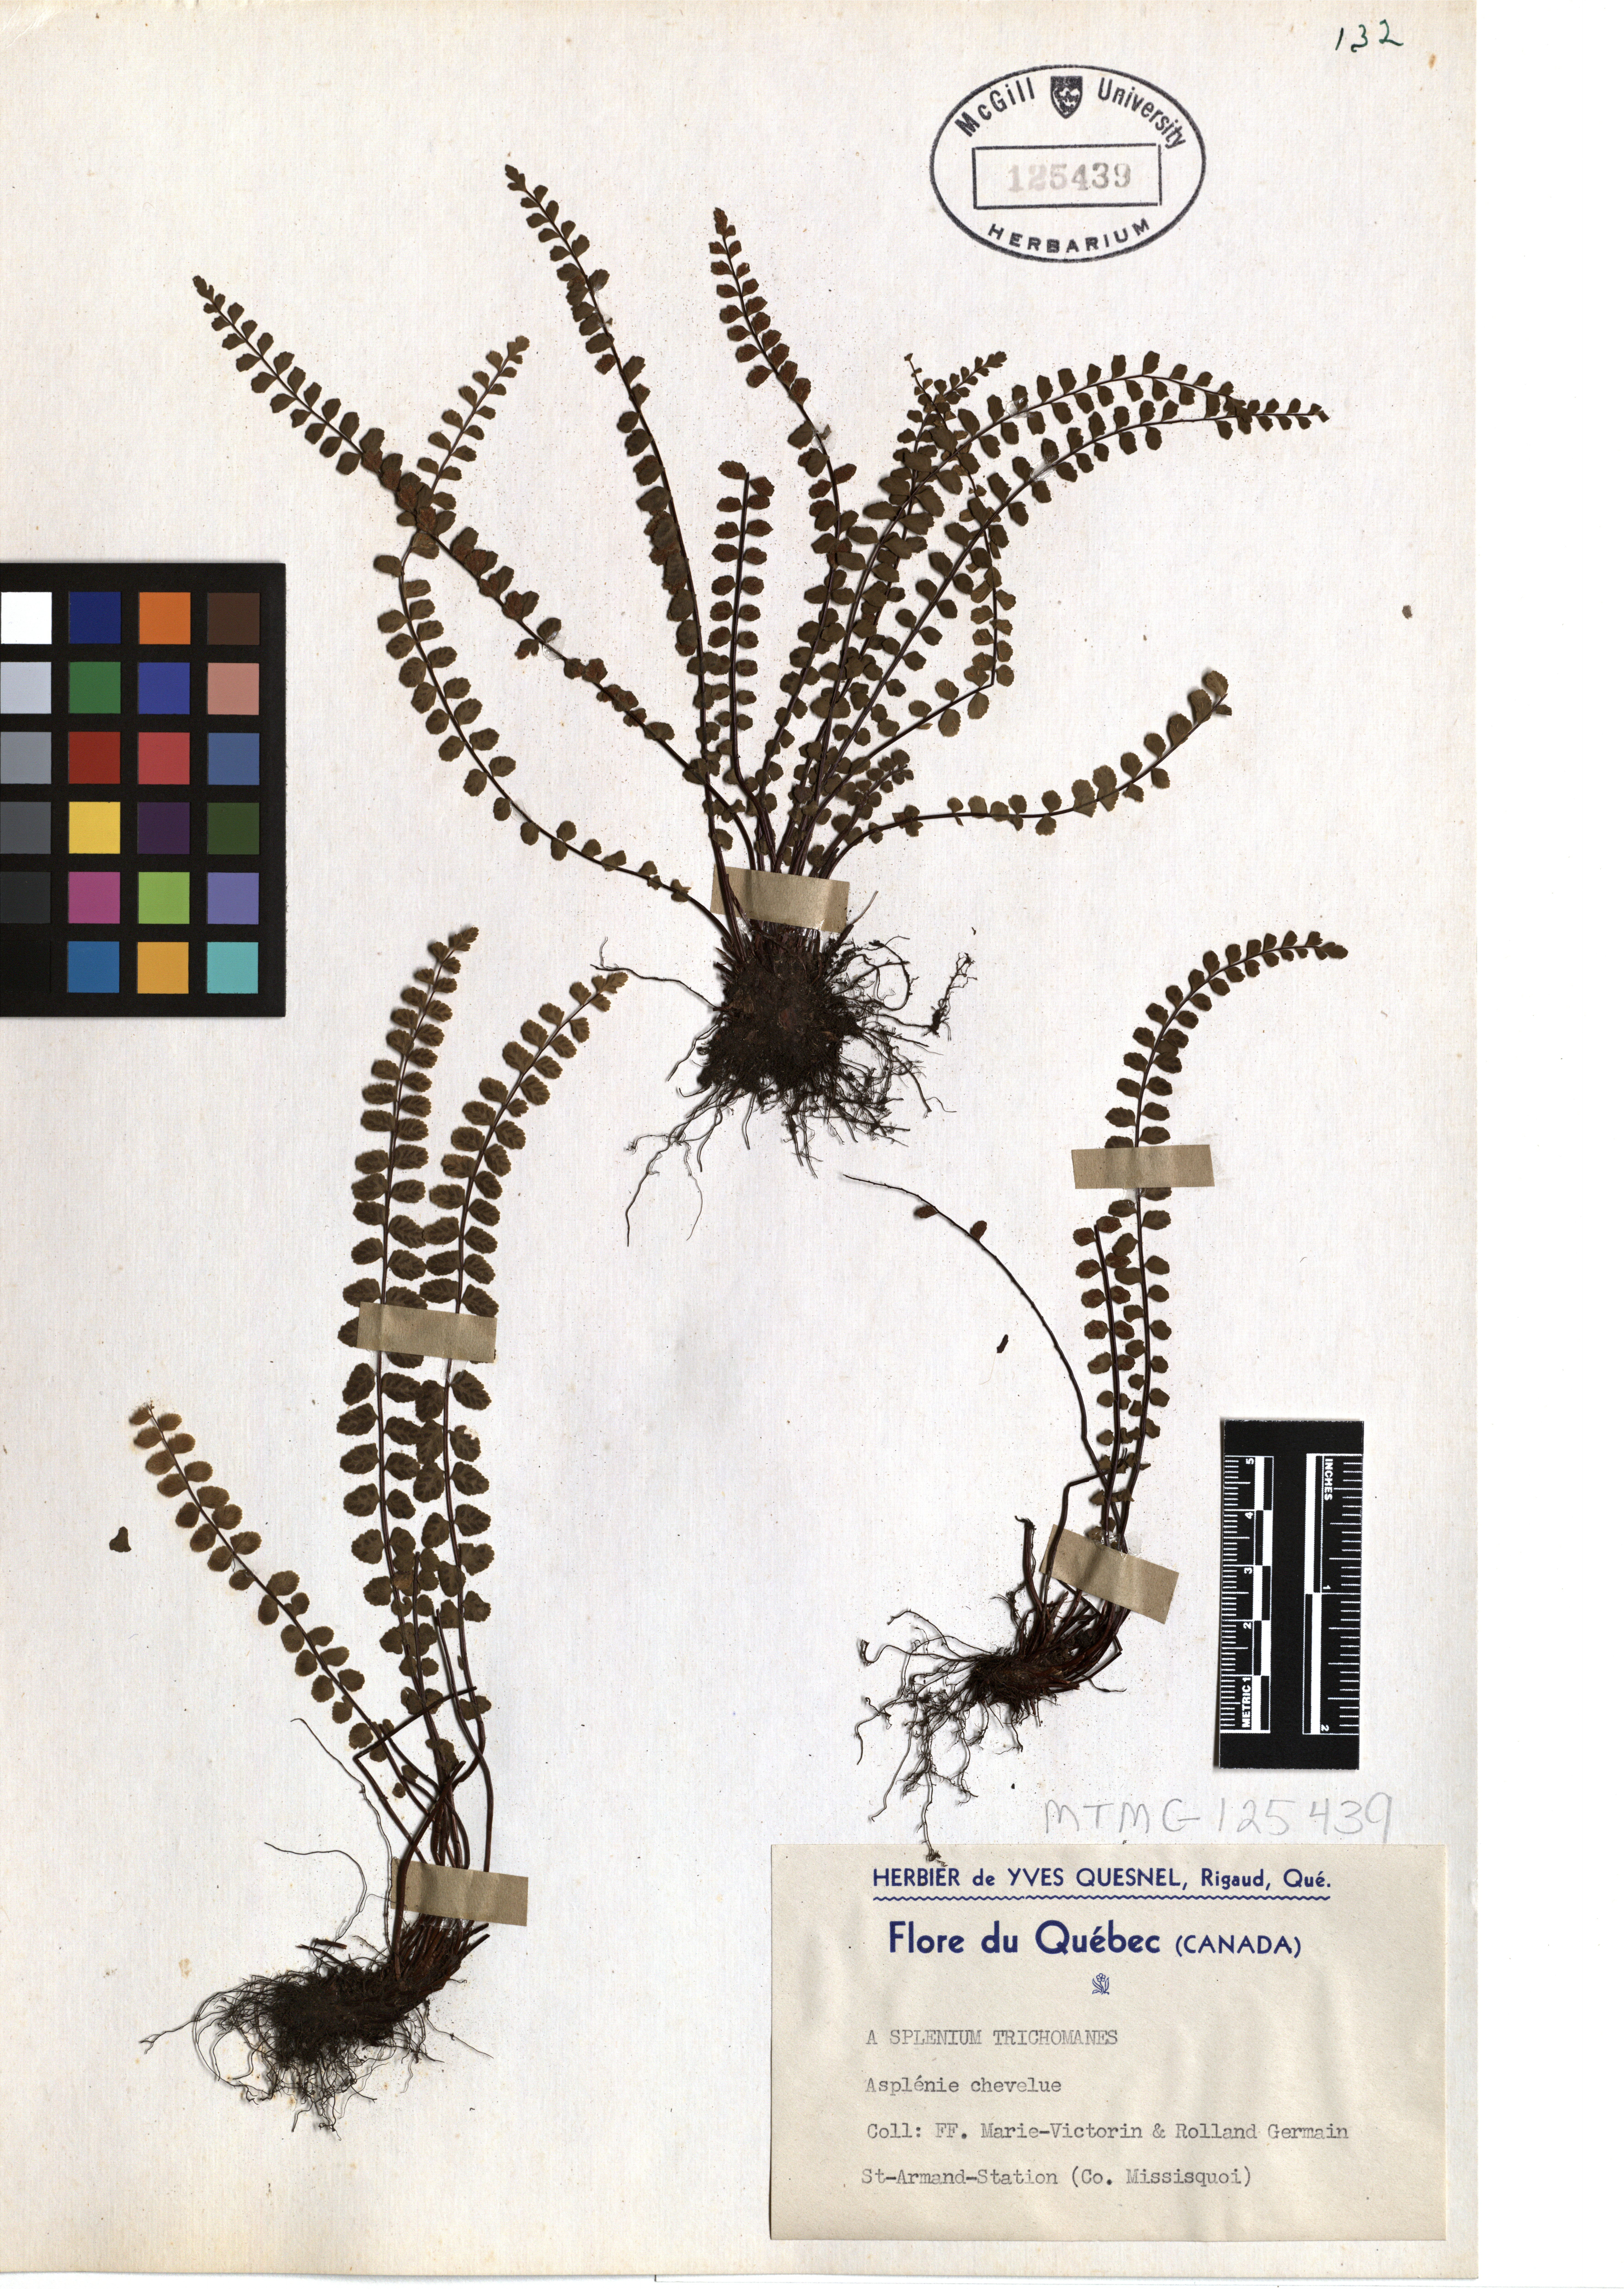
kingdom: Plantae
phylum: Tracheophyta
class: Polypodiopsida
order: Polypodiales
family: Aspleniaceae
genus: Asplenium
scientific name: Asplenium trichomanes
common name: Maidenhair spleenwort
